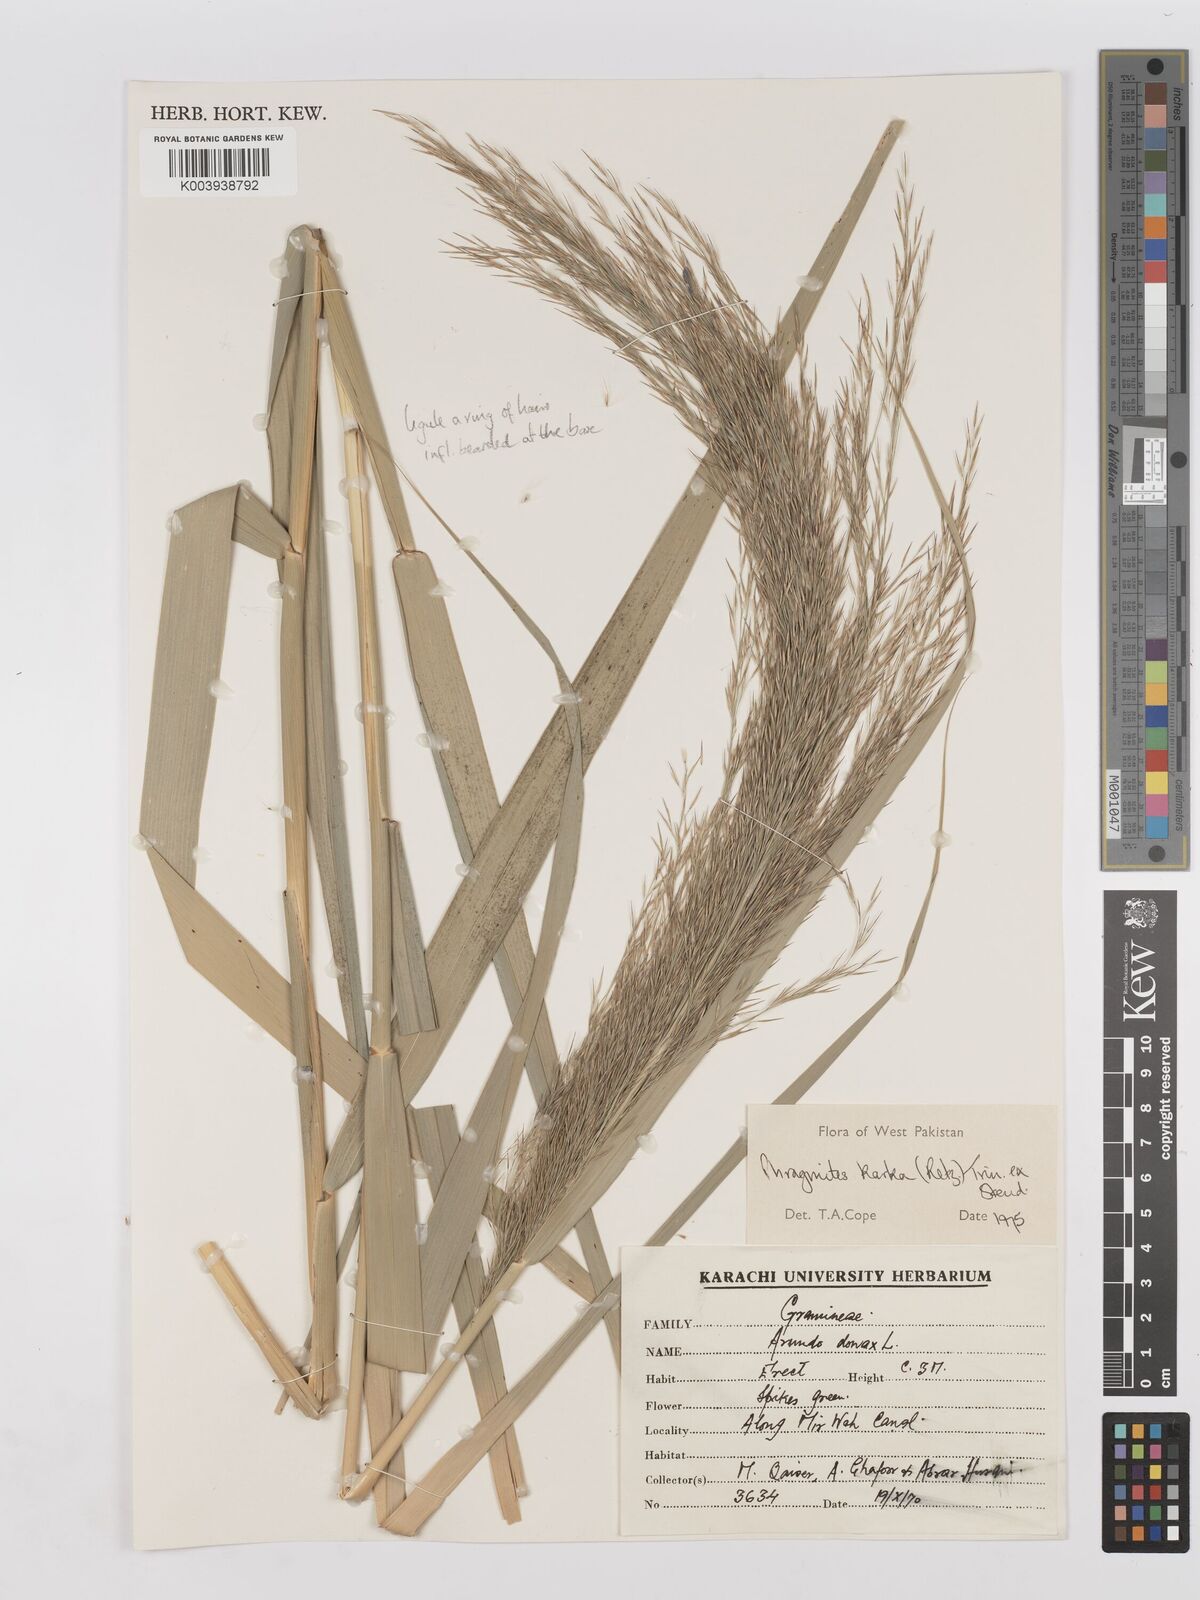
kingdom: Plantae
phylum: Tracheophyta
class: Liliopsida
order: Poales
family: Poaceae
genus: Phragmites
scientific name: Phragmites karka
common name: Tropical reed
